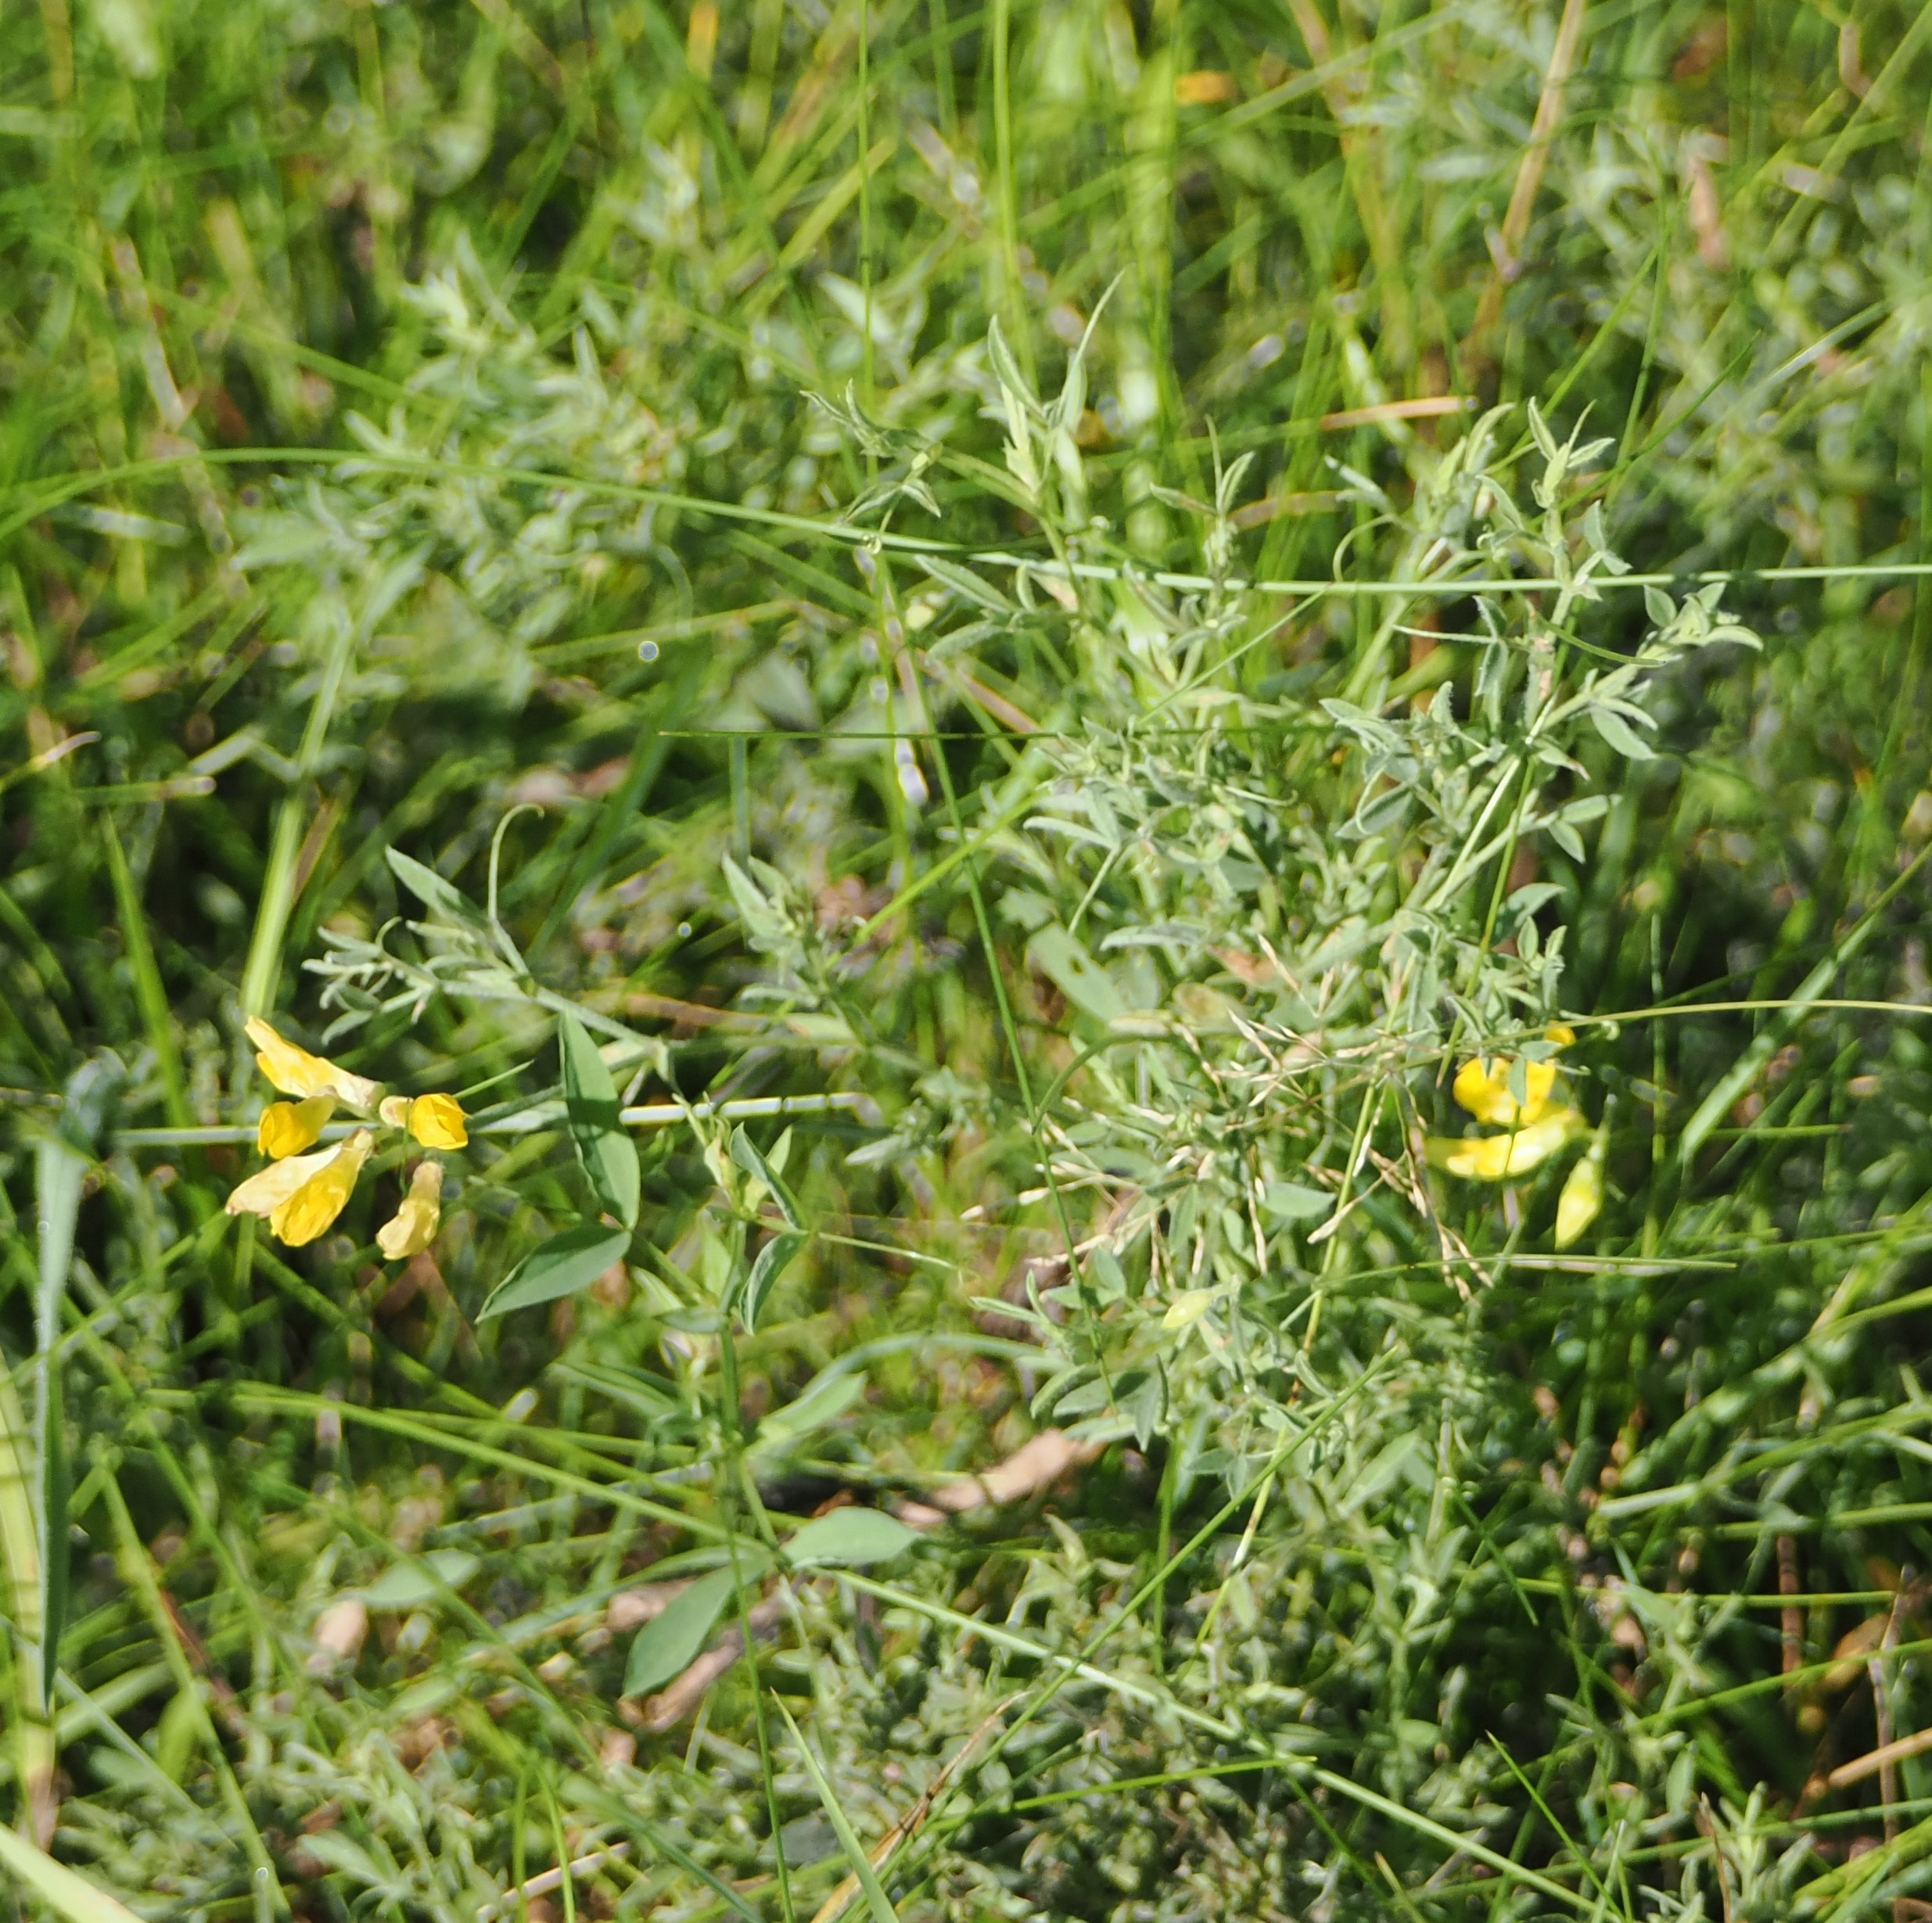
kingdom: Plantae
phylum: Tracheophyta
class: Magnoliopsida
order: Fabales
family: Fabaceae
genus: Lathyrus
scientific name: Lathyrus pratensis
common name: Gul fladbælg
